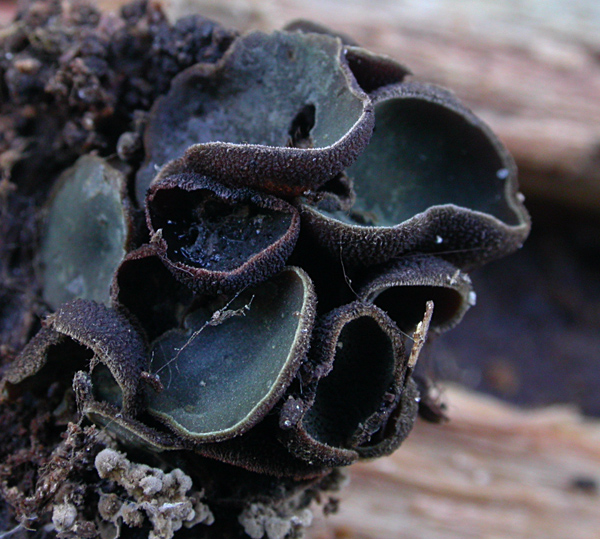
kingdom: Fungi
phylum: Ascomycota
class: Leotiomycetes
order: Helotiales
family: Cordieritidaceae
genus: Diplocarpa
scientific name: Diplocarpa bloxamii
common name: pragthårskive
